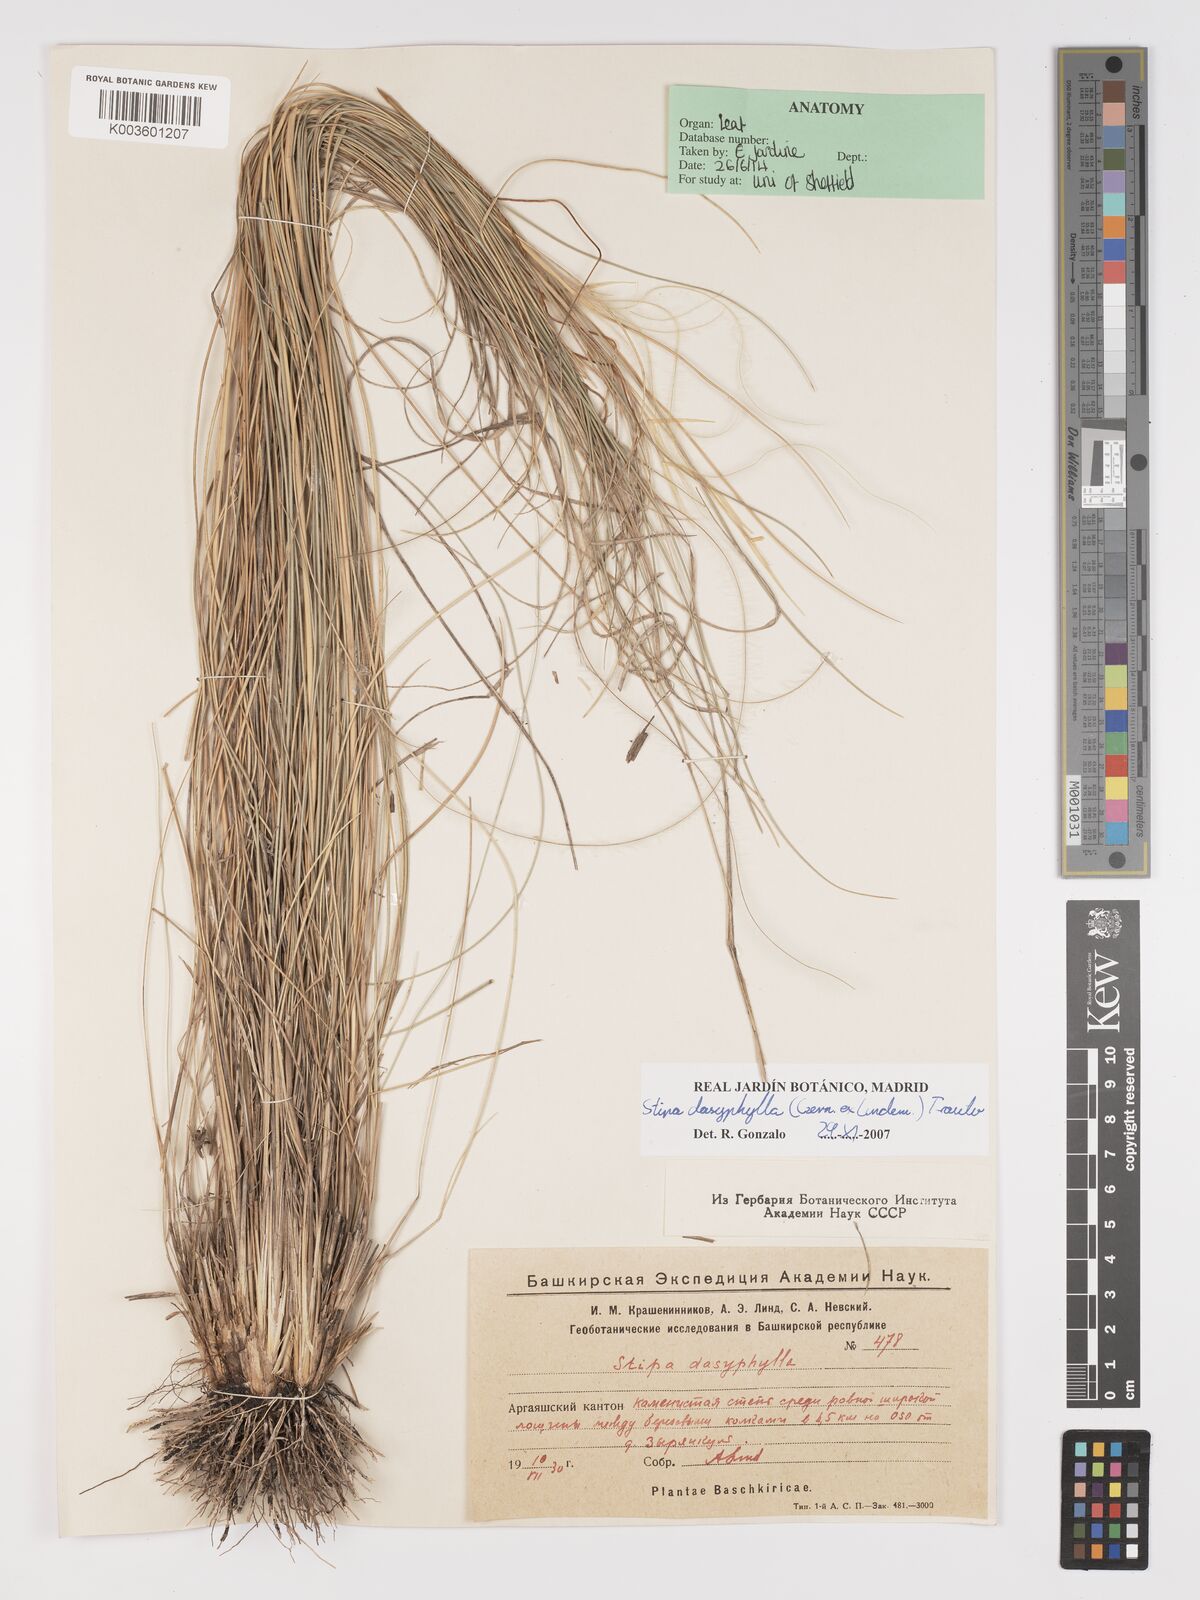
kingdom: Plantae
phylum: Tracheophyta
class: Liliopsida
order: Poales
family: Poaceae
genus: Stipa
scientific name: Stipa dasyphylla
